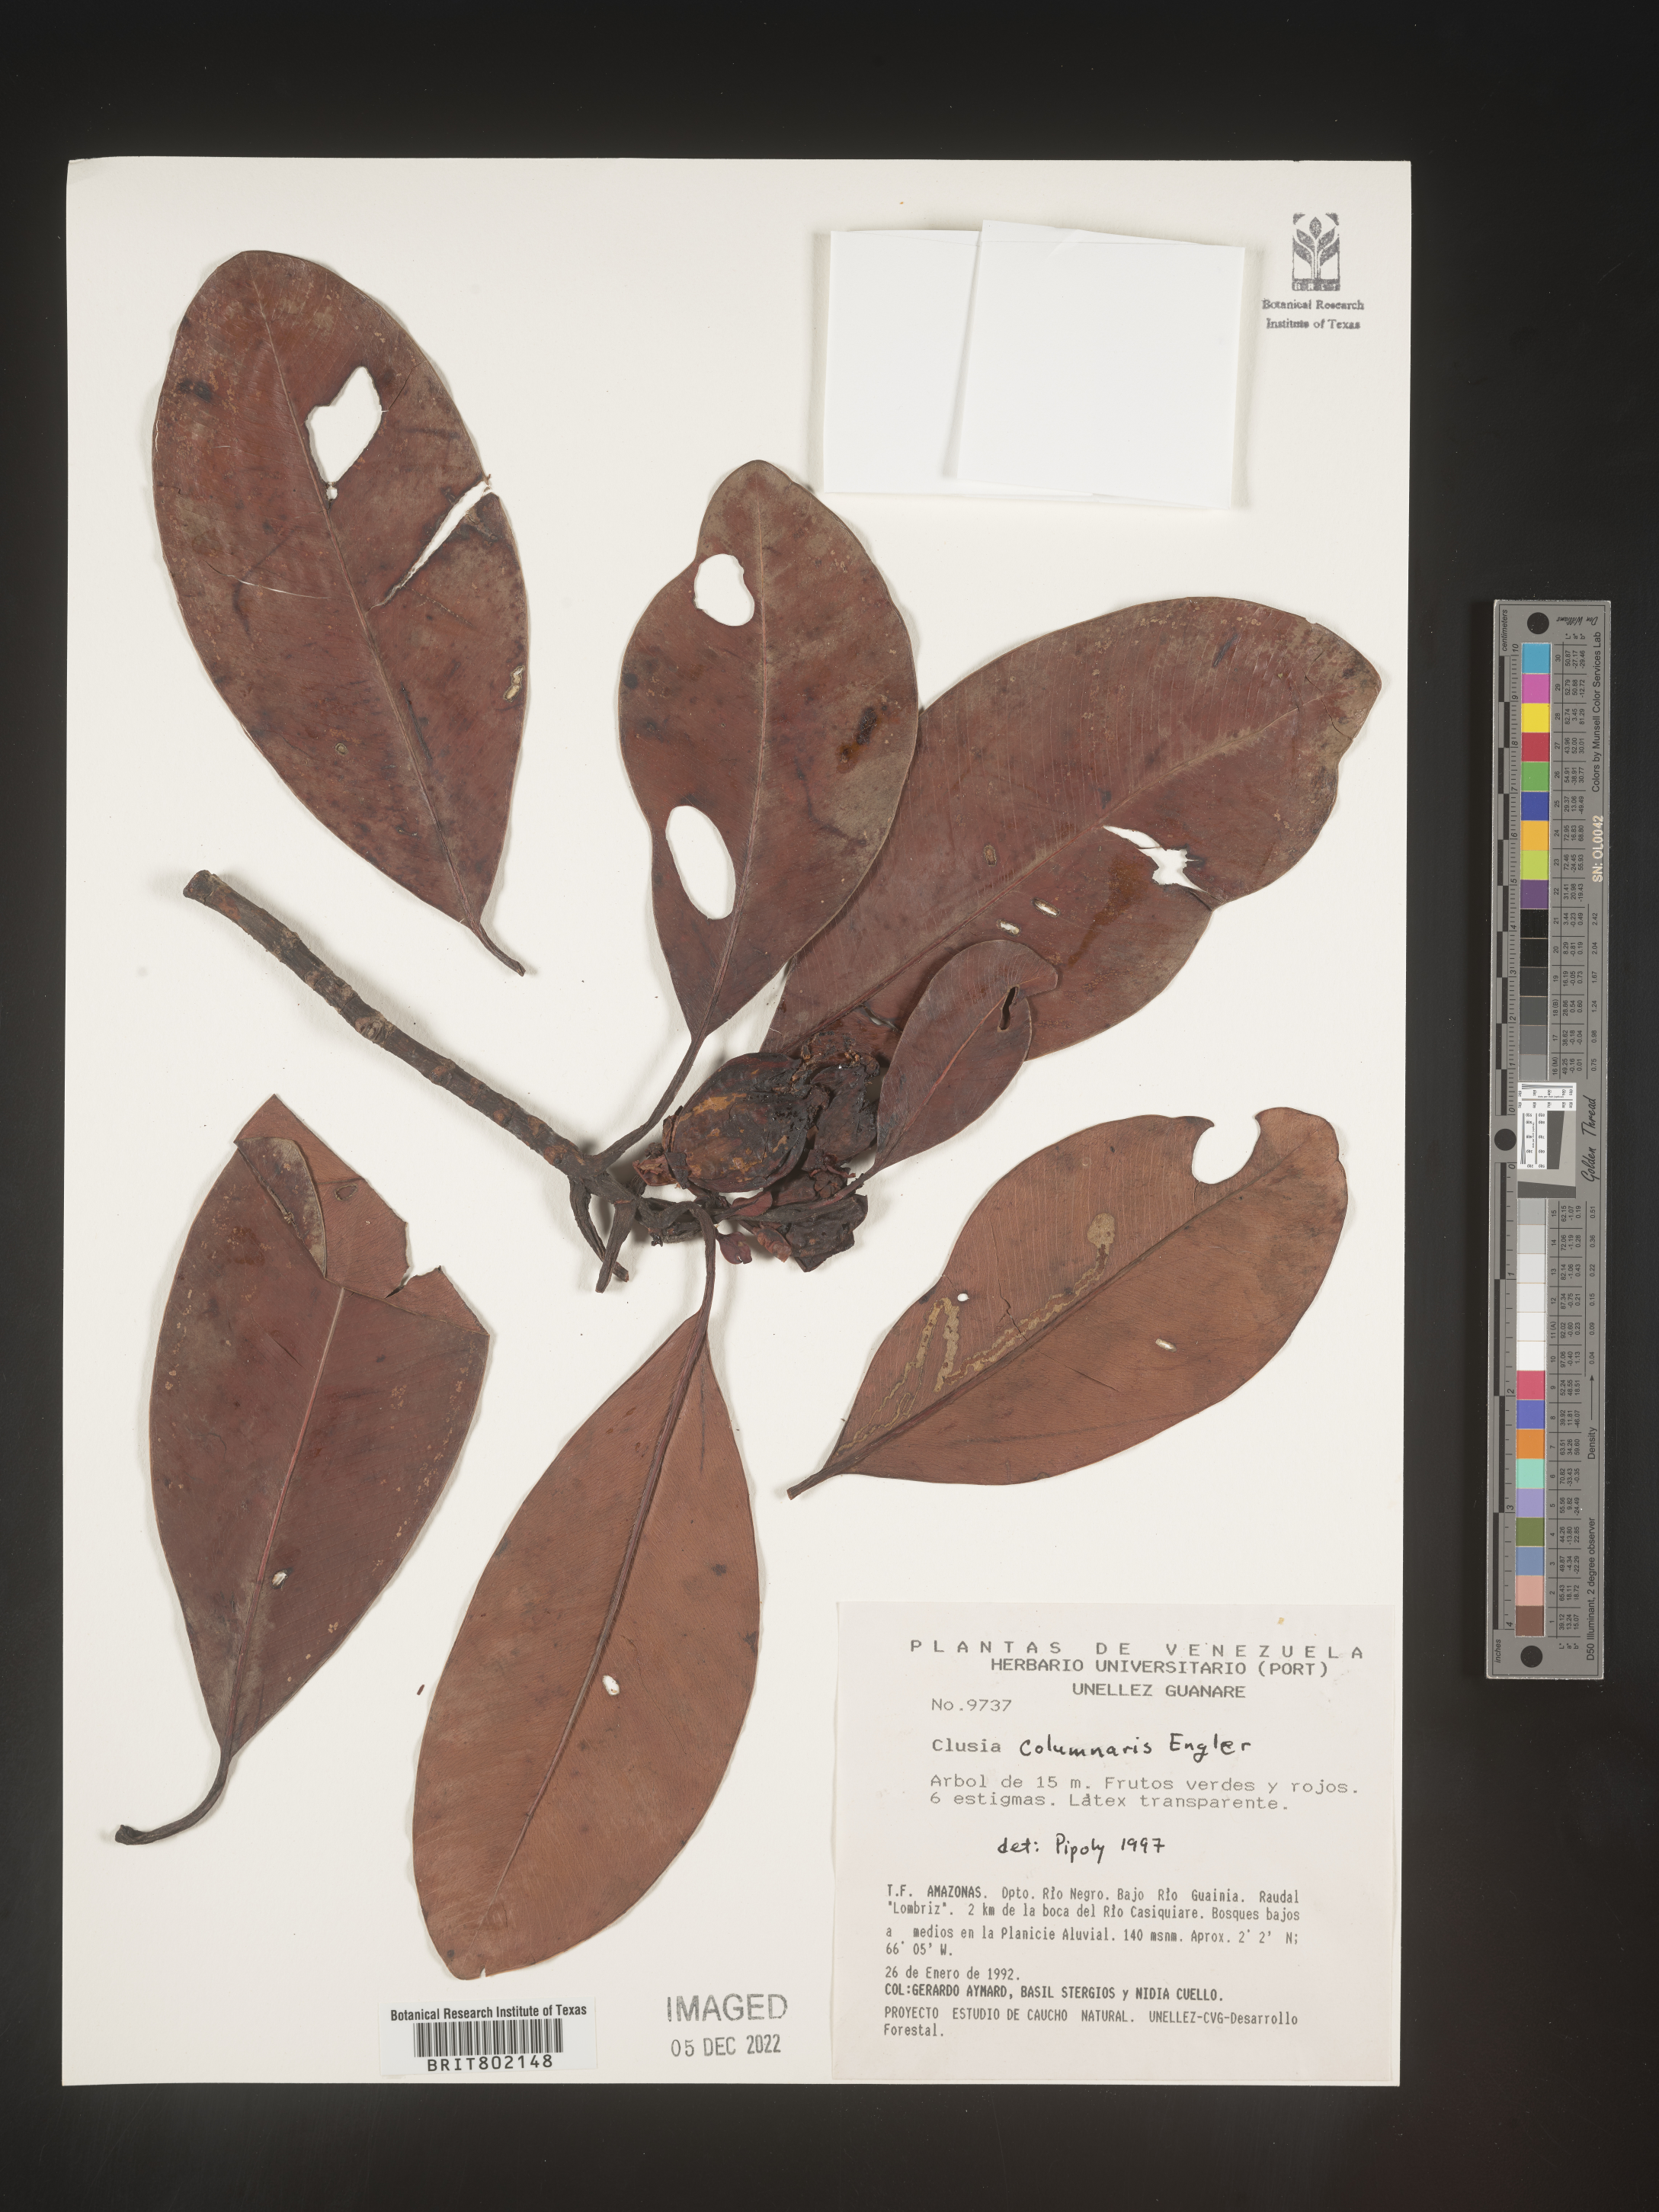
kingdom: Plantae
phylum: Tracheophyta
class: Magnoliopsida
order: Malpighiales
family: Clusiaceae
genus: Clusia
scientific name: Clusia columnaris
